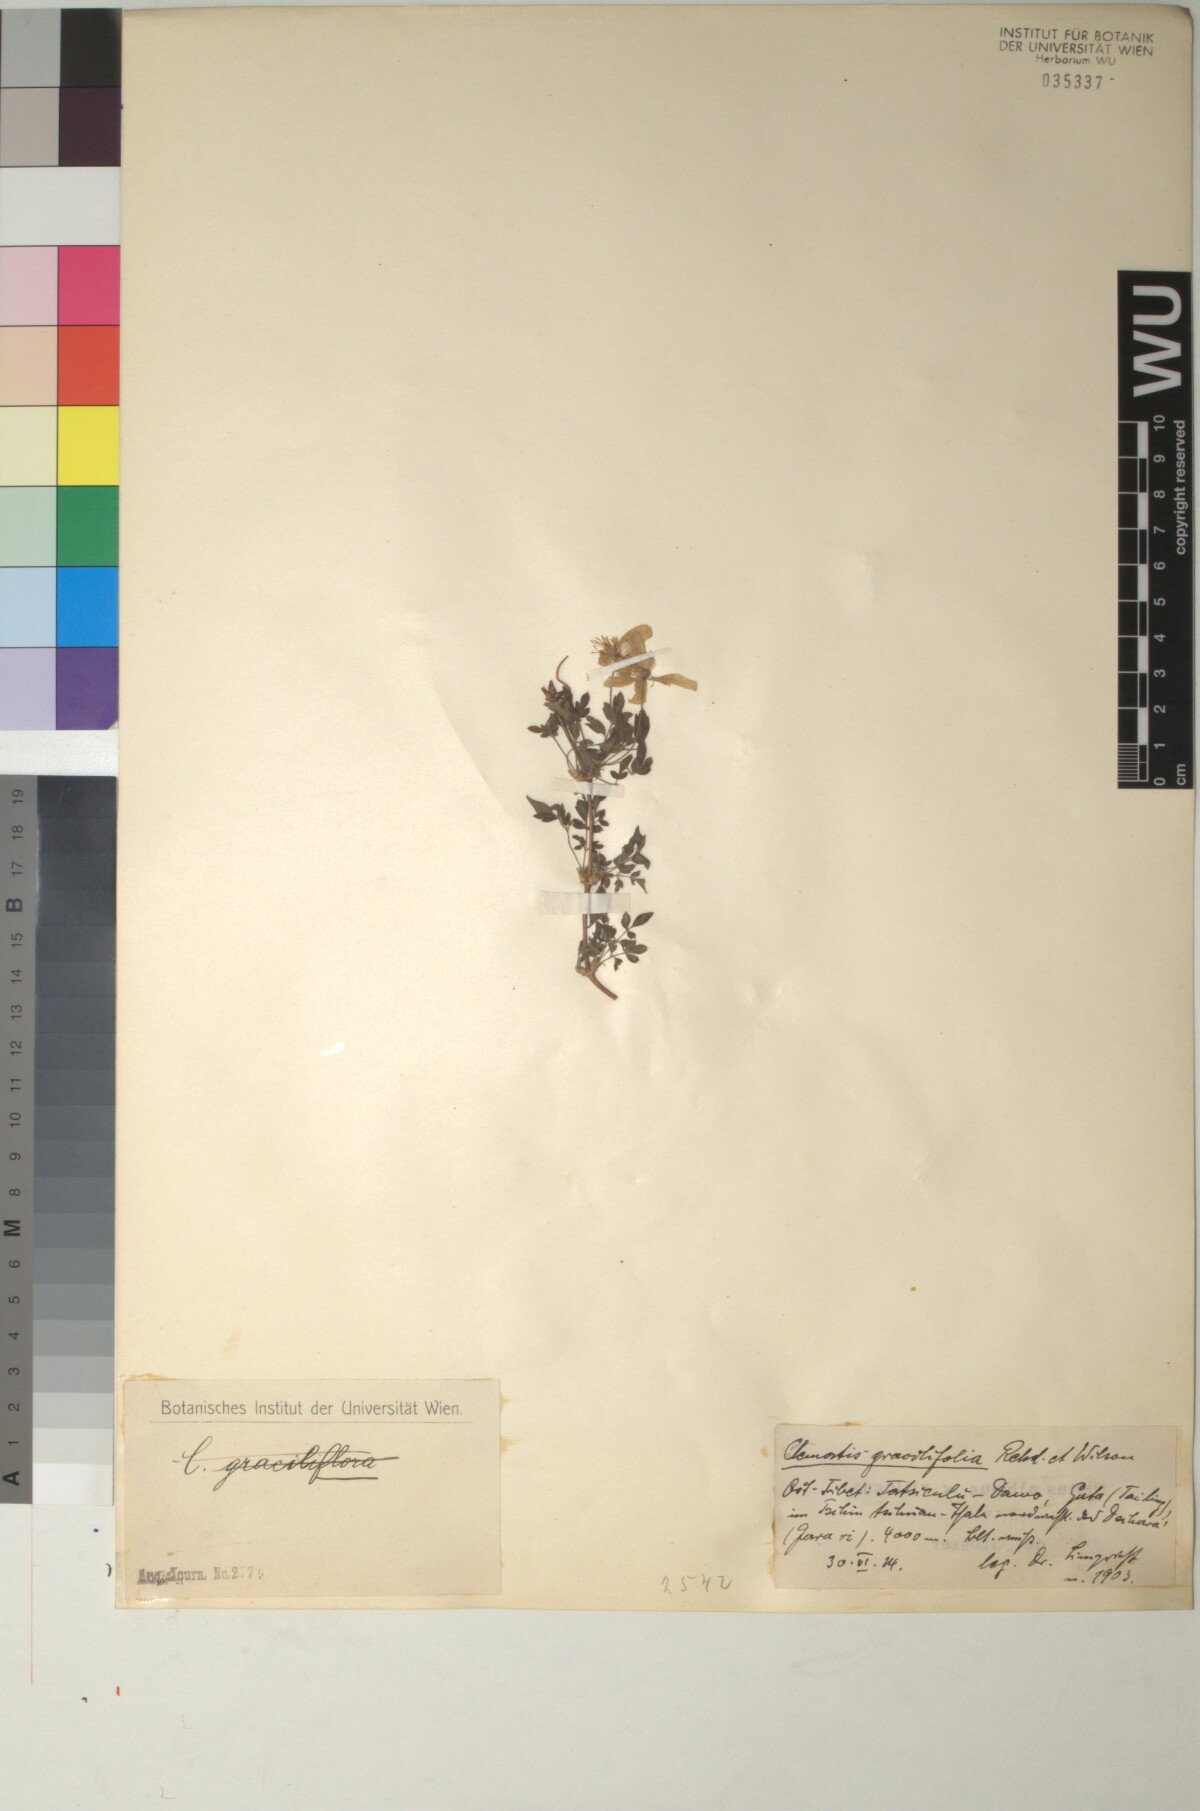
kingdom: Plantae
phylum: Tracheophyta
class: Magnoliopsida
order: Ranunculales
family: Ranunculaceae
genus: Clematis
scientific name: Clematis gracilifolia
